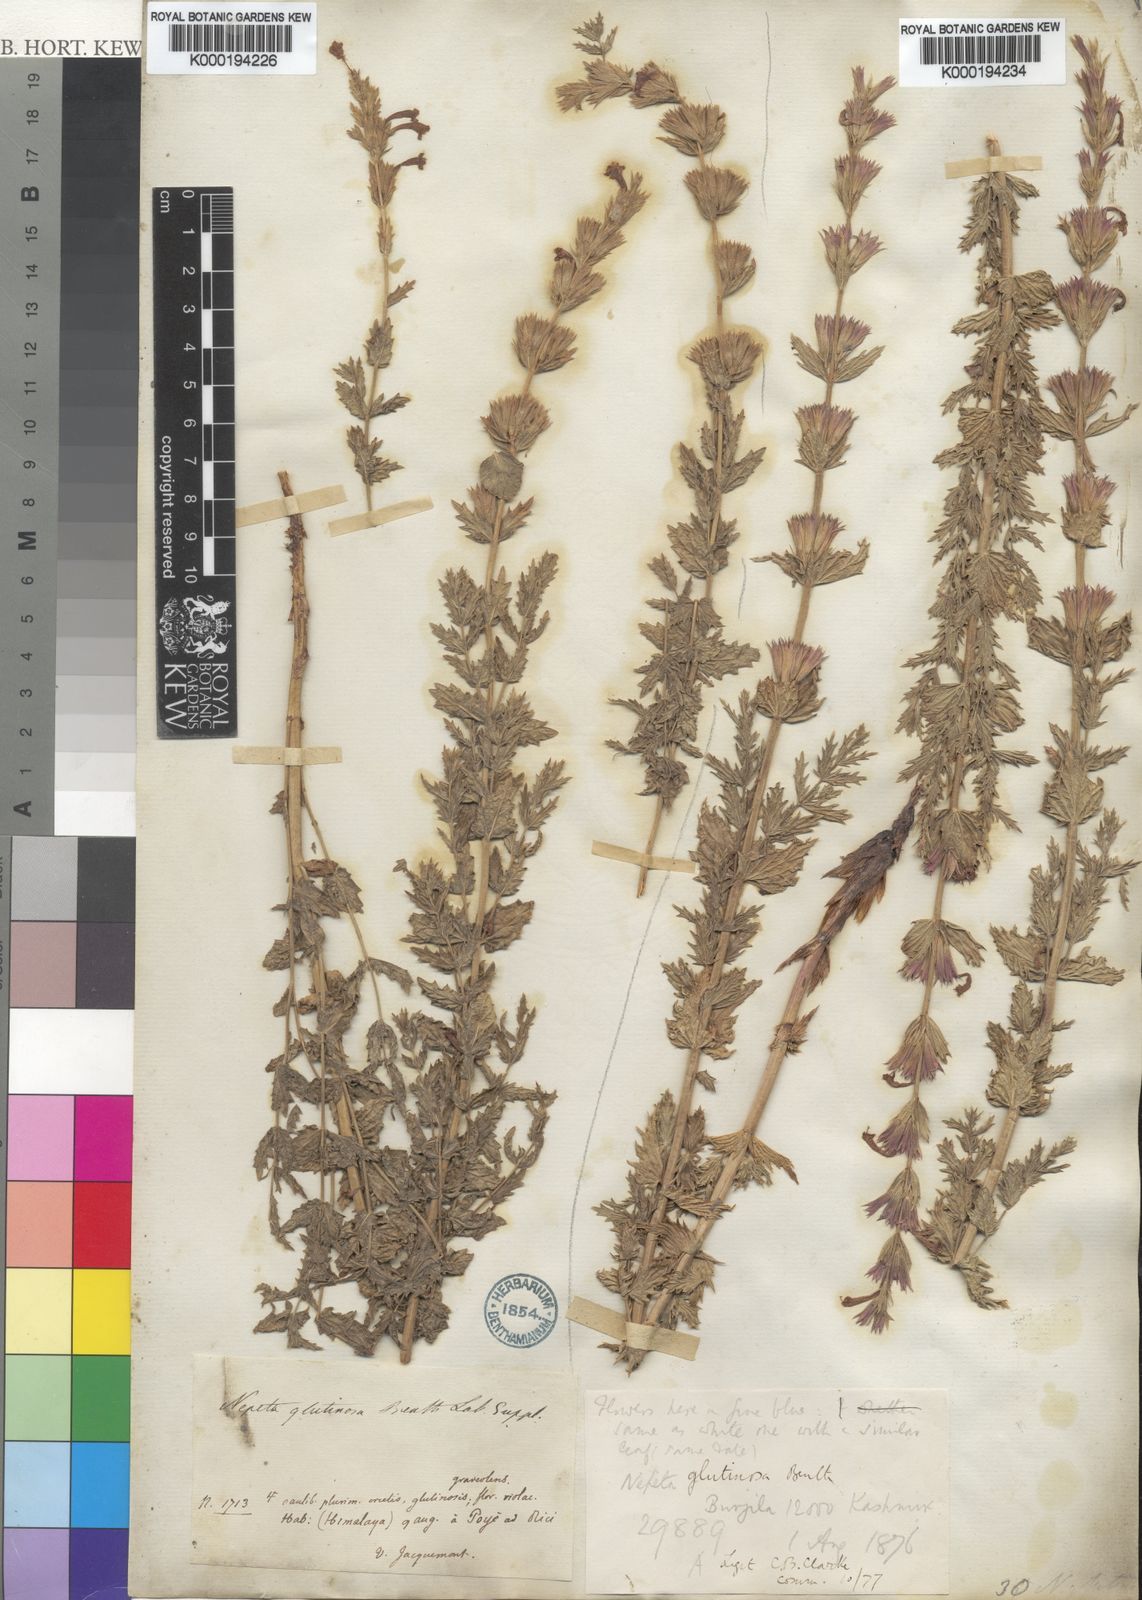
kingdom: Plantae
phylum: Tracheophyta
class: Magnoliopsida
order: Lamiales
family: Lamiaceae
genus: Nepeta
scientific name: Nepeta glutinosa
